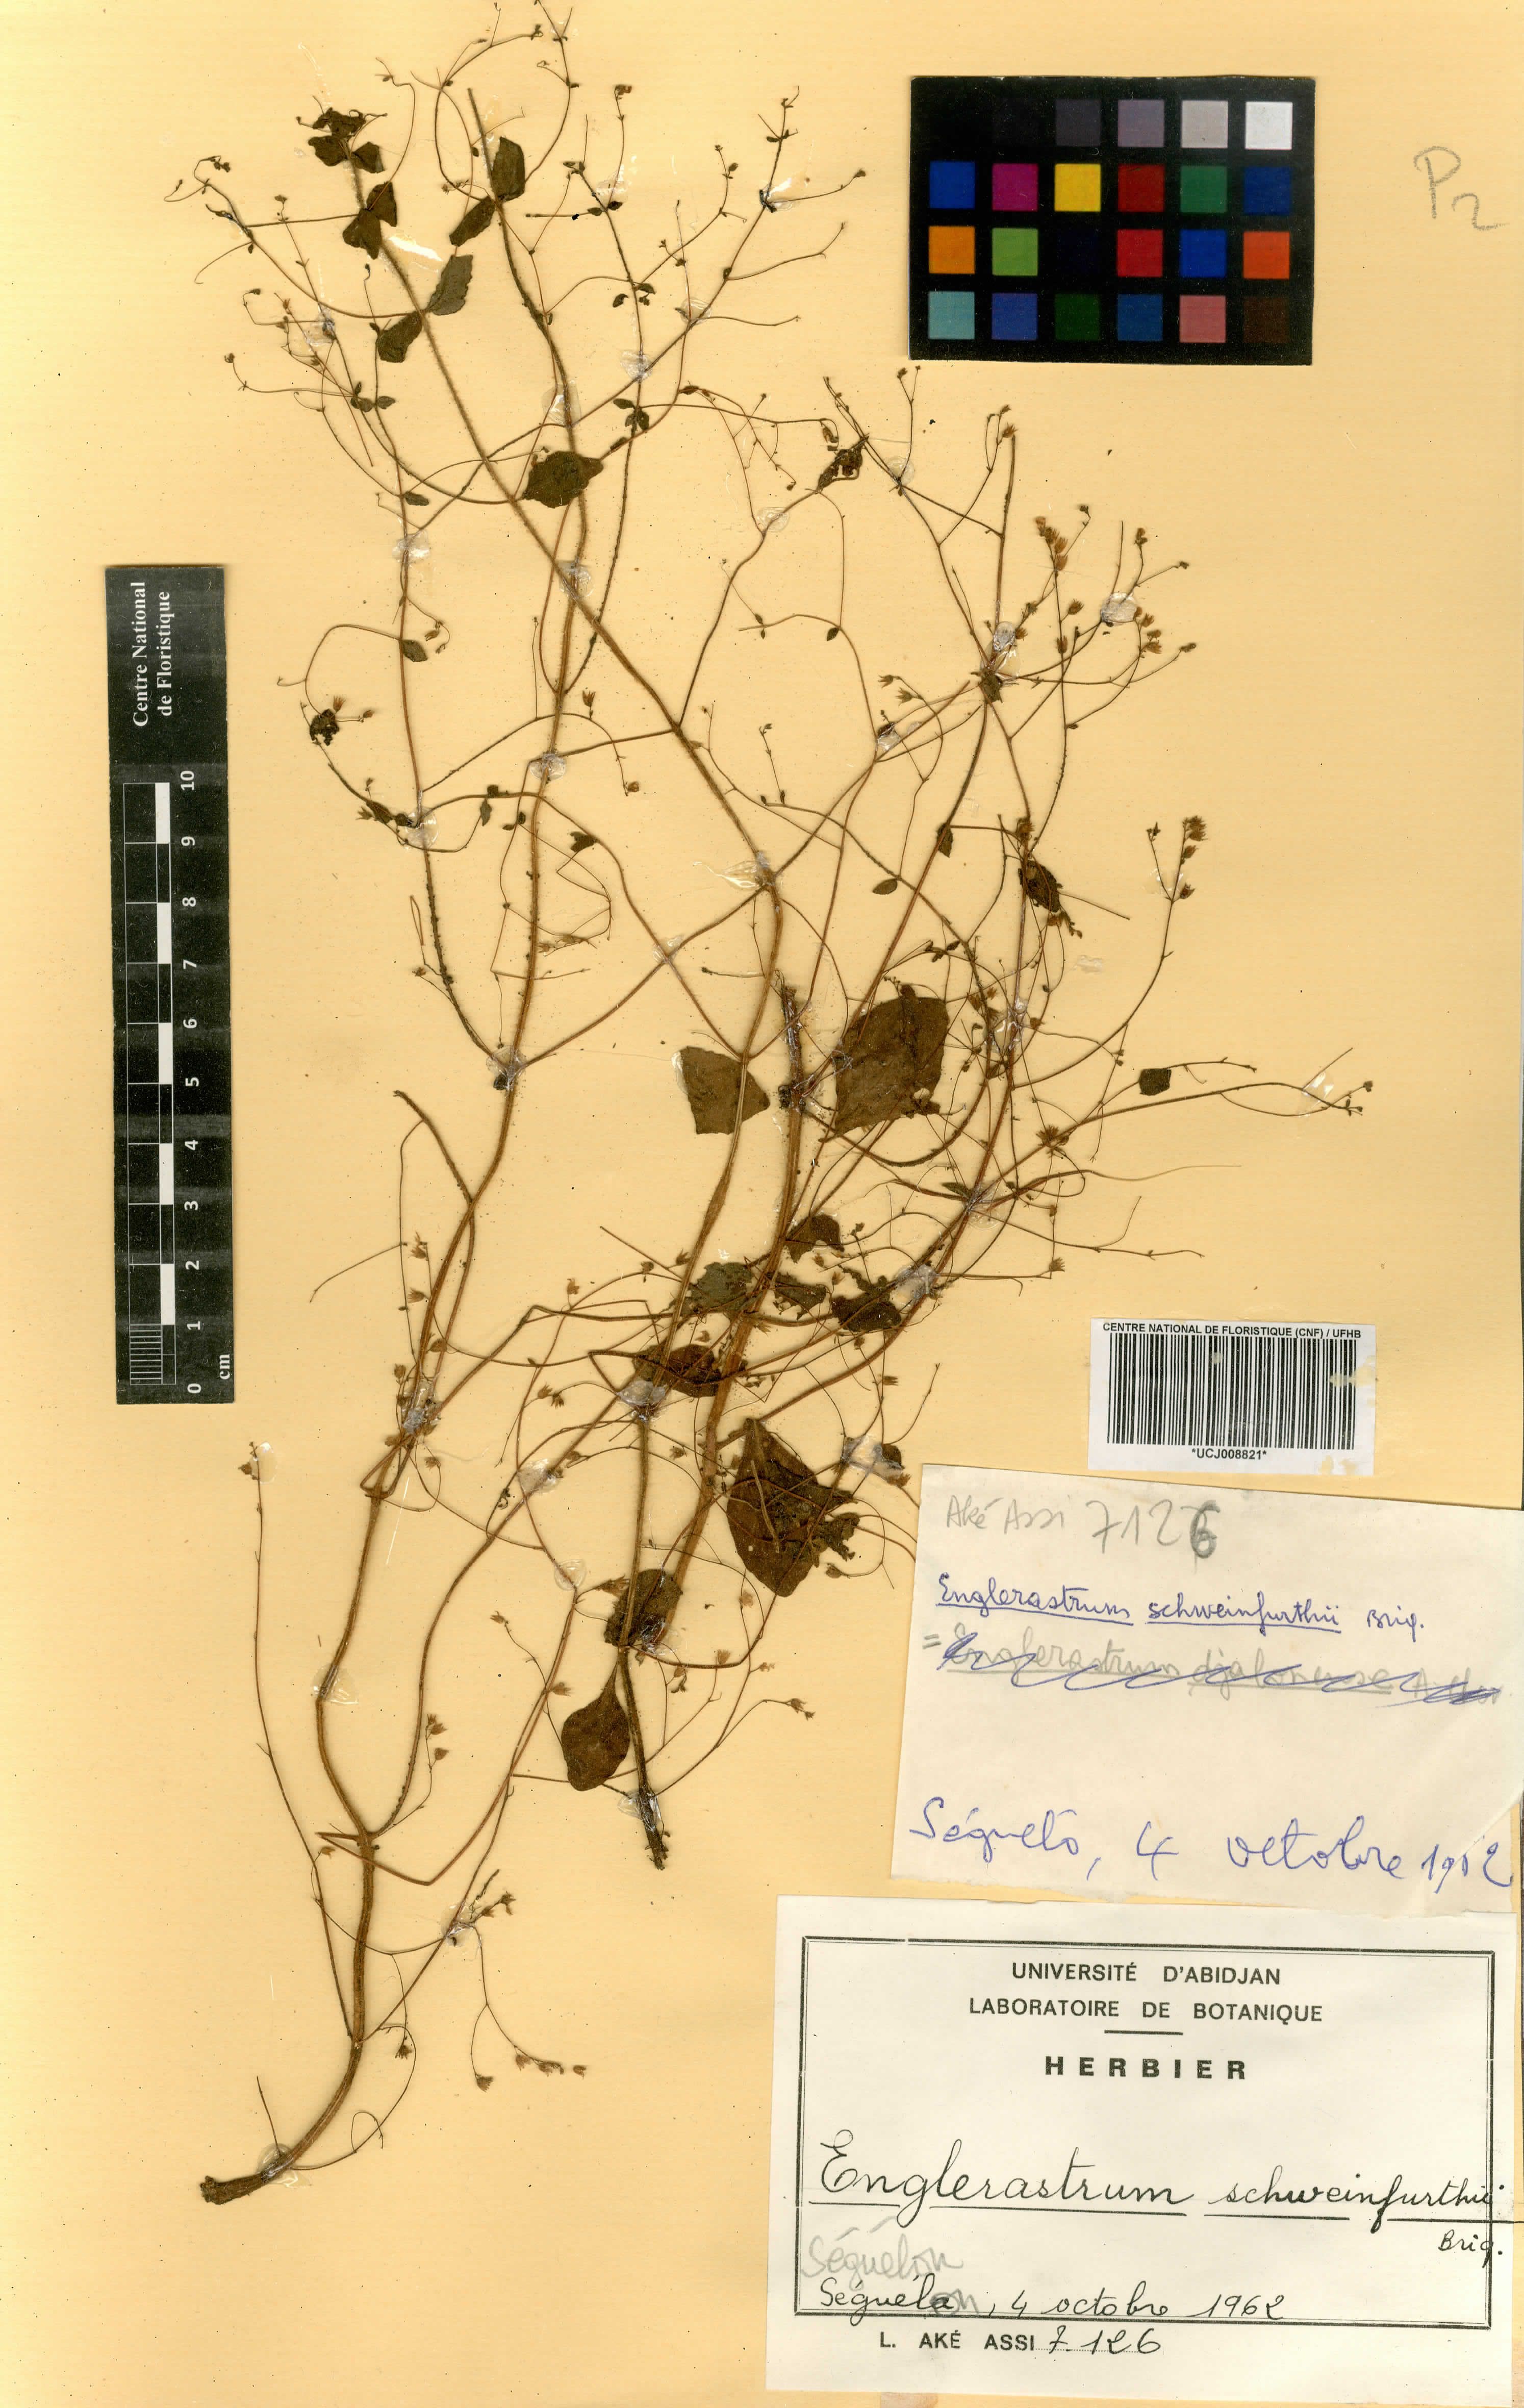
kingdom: Plantae
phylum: Tracheophyta
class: Magnoliopsida
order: Lamiales
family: Lamiaceae
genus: Coleus
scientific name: Coleus rhodesianum
